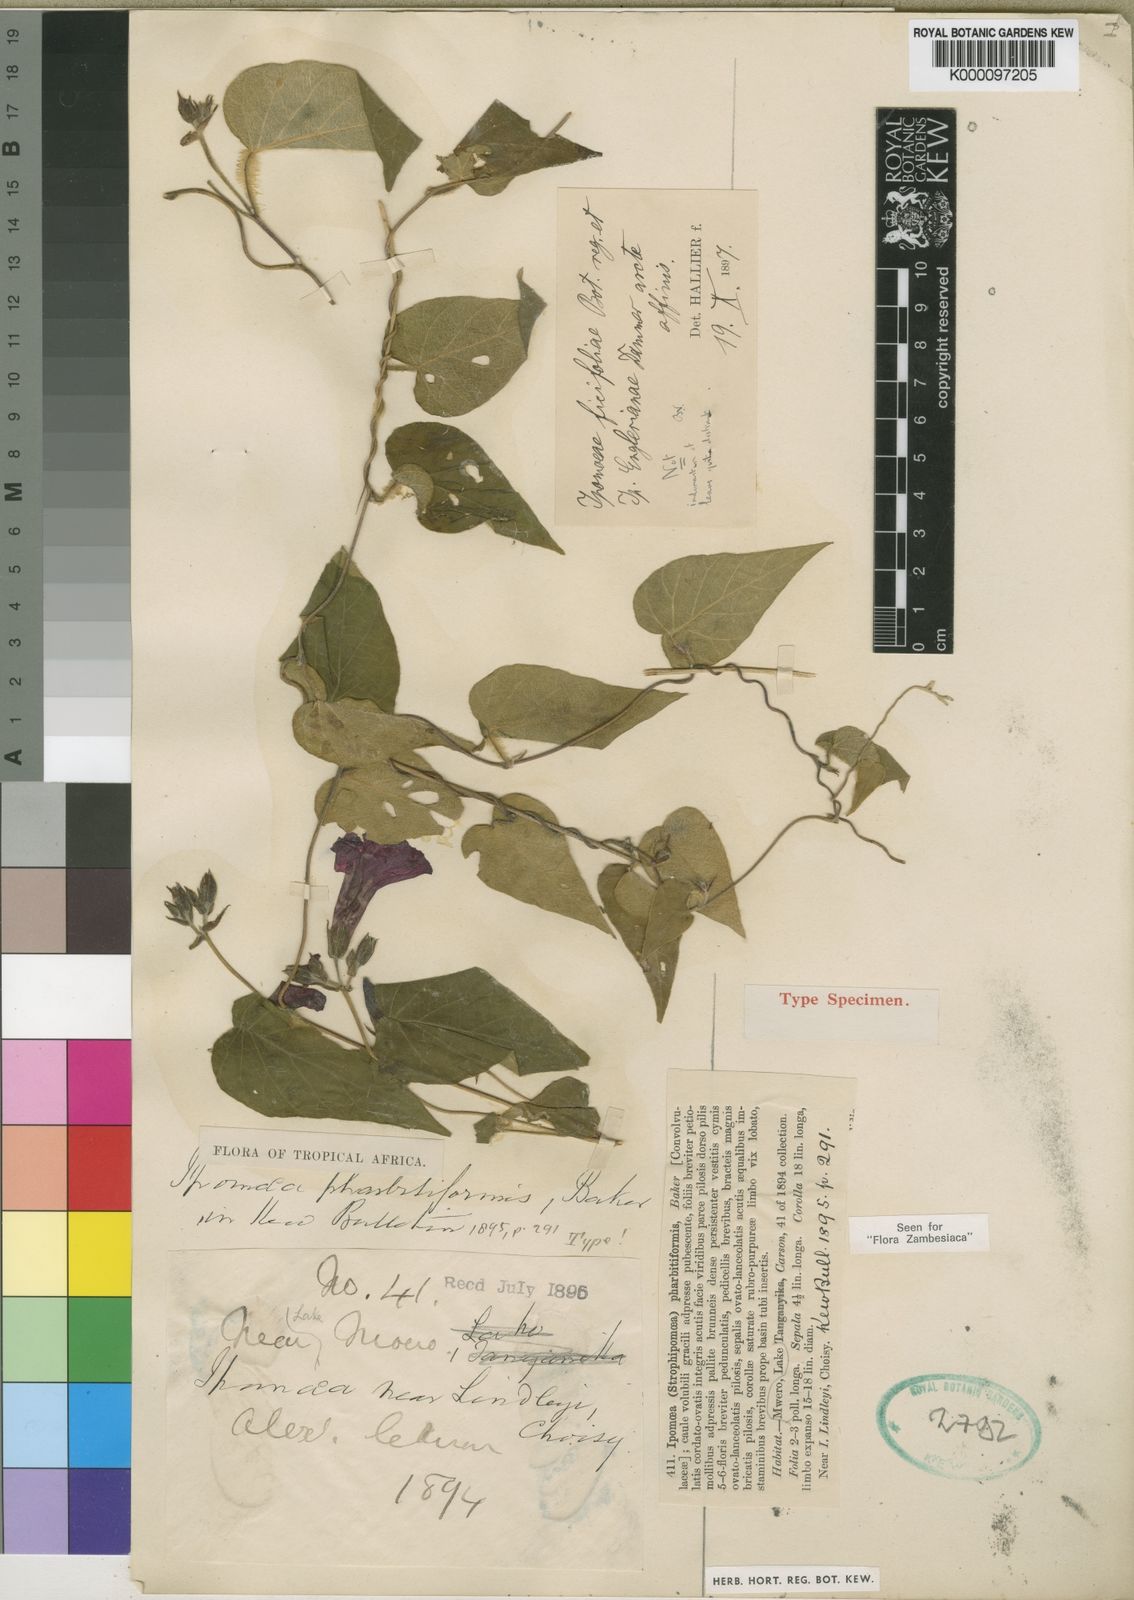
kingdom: Plantae
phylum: Tracheophyta
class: Magnoliopsida
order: Solanales
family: Convolvulaceae
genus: Ipomoea
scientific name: Ipomoea chrysochaetia
